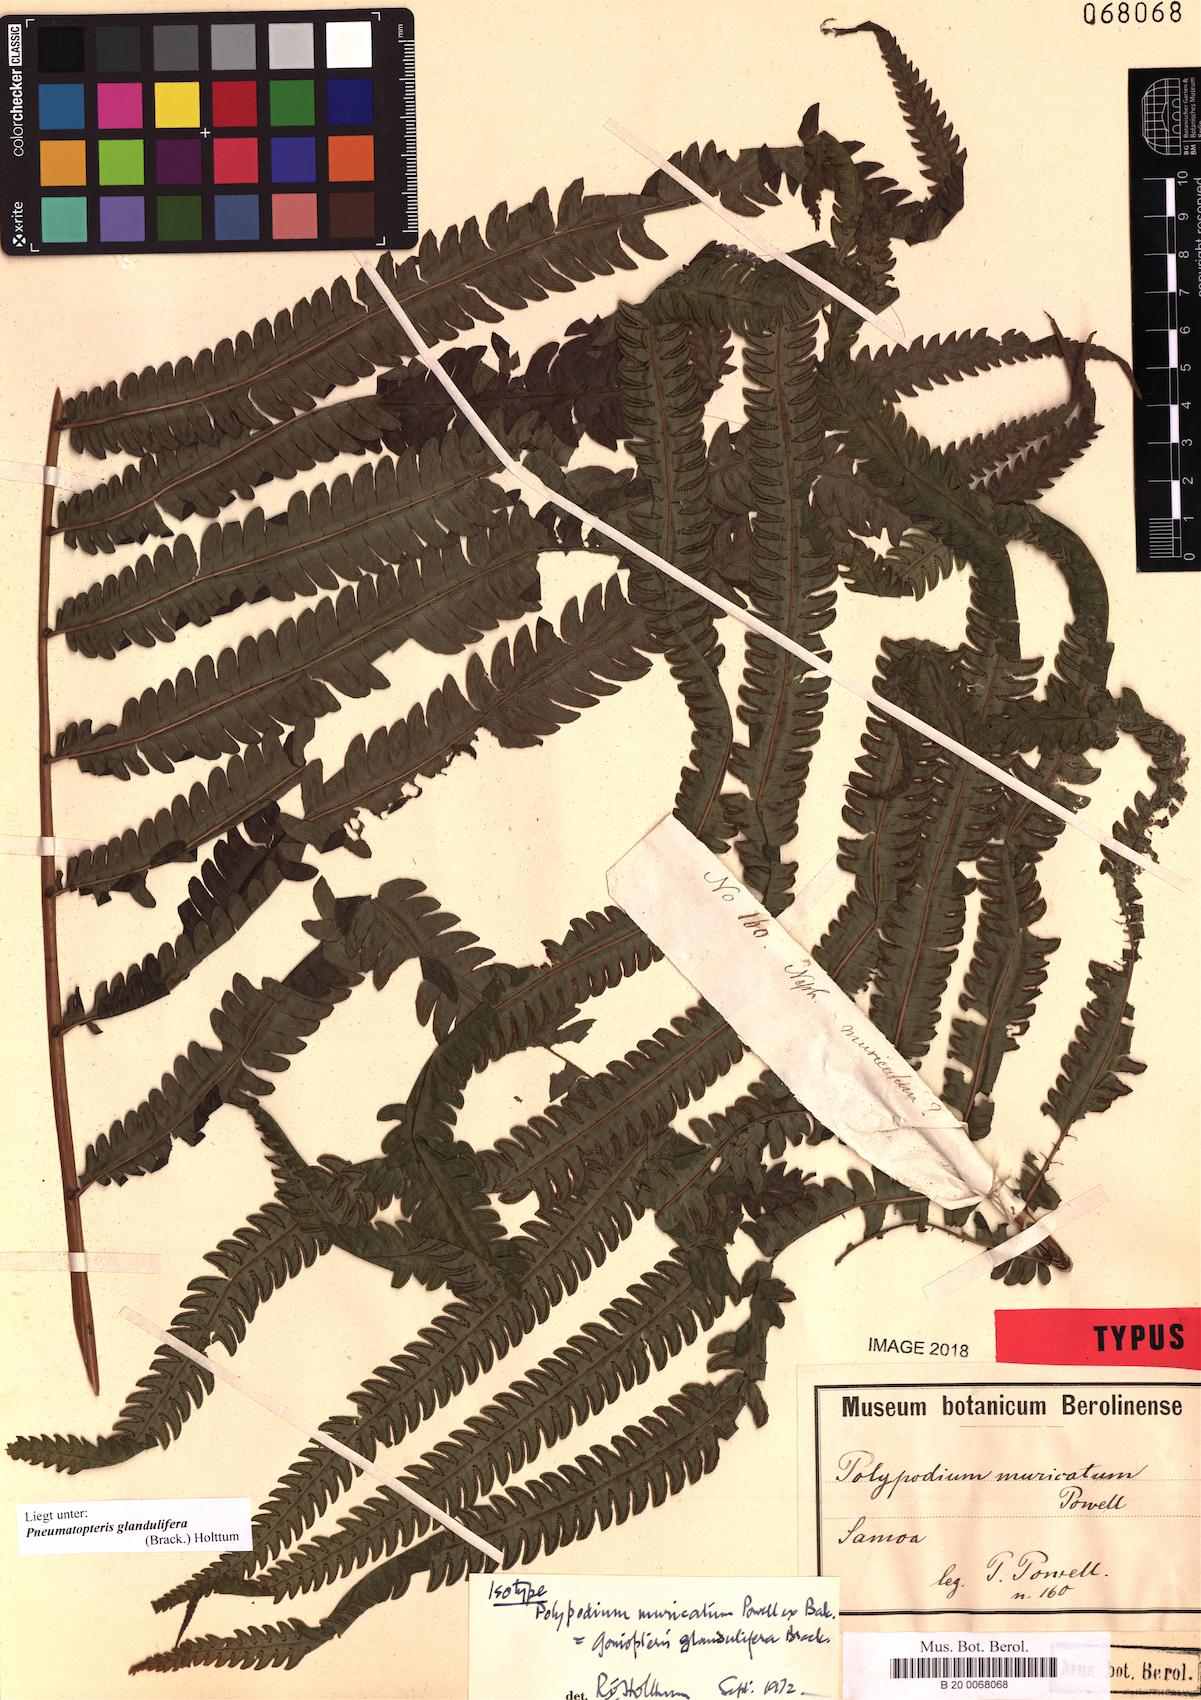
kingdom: Plantae
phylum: Tracheophyta
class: Polypodiopsida
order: Polypodiales
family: Thelypteridaceae
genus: Pneumatopteris
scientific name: Pneumatopteris glandulifera
